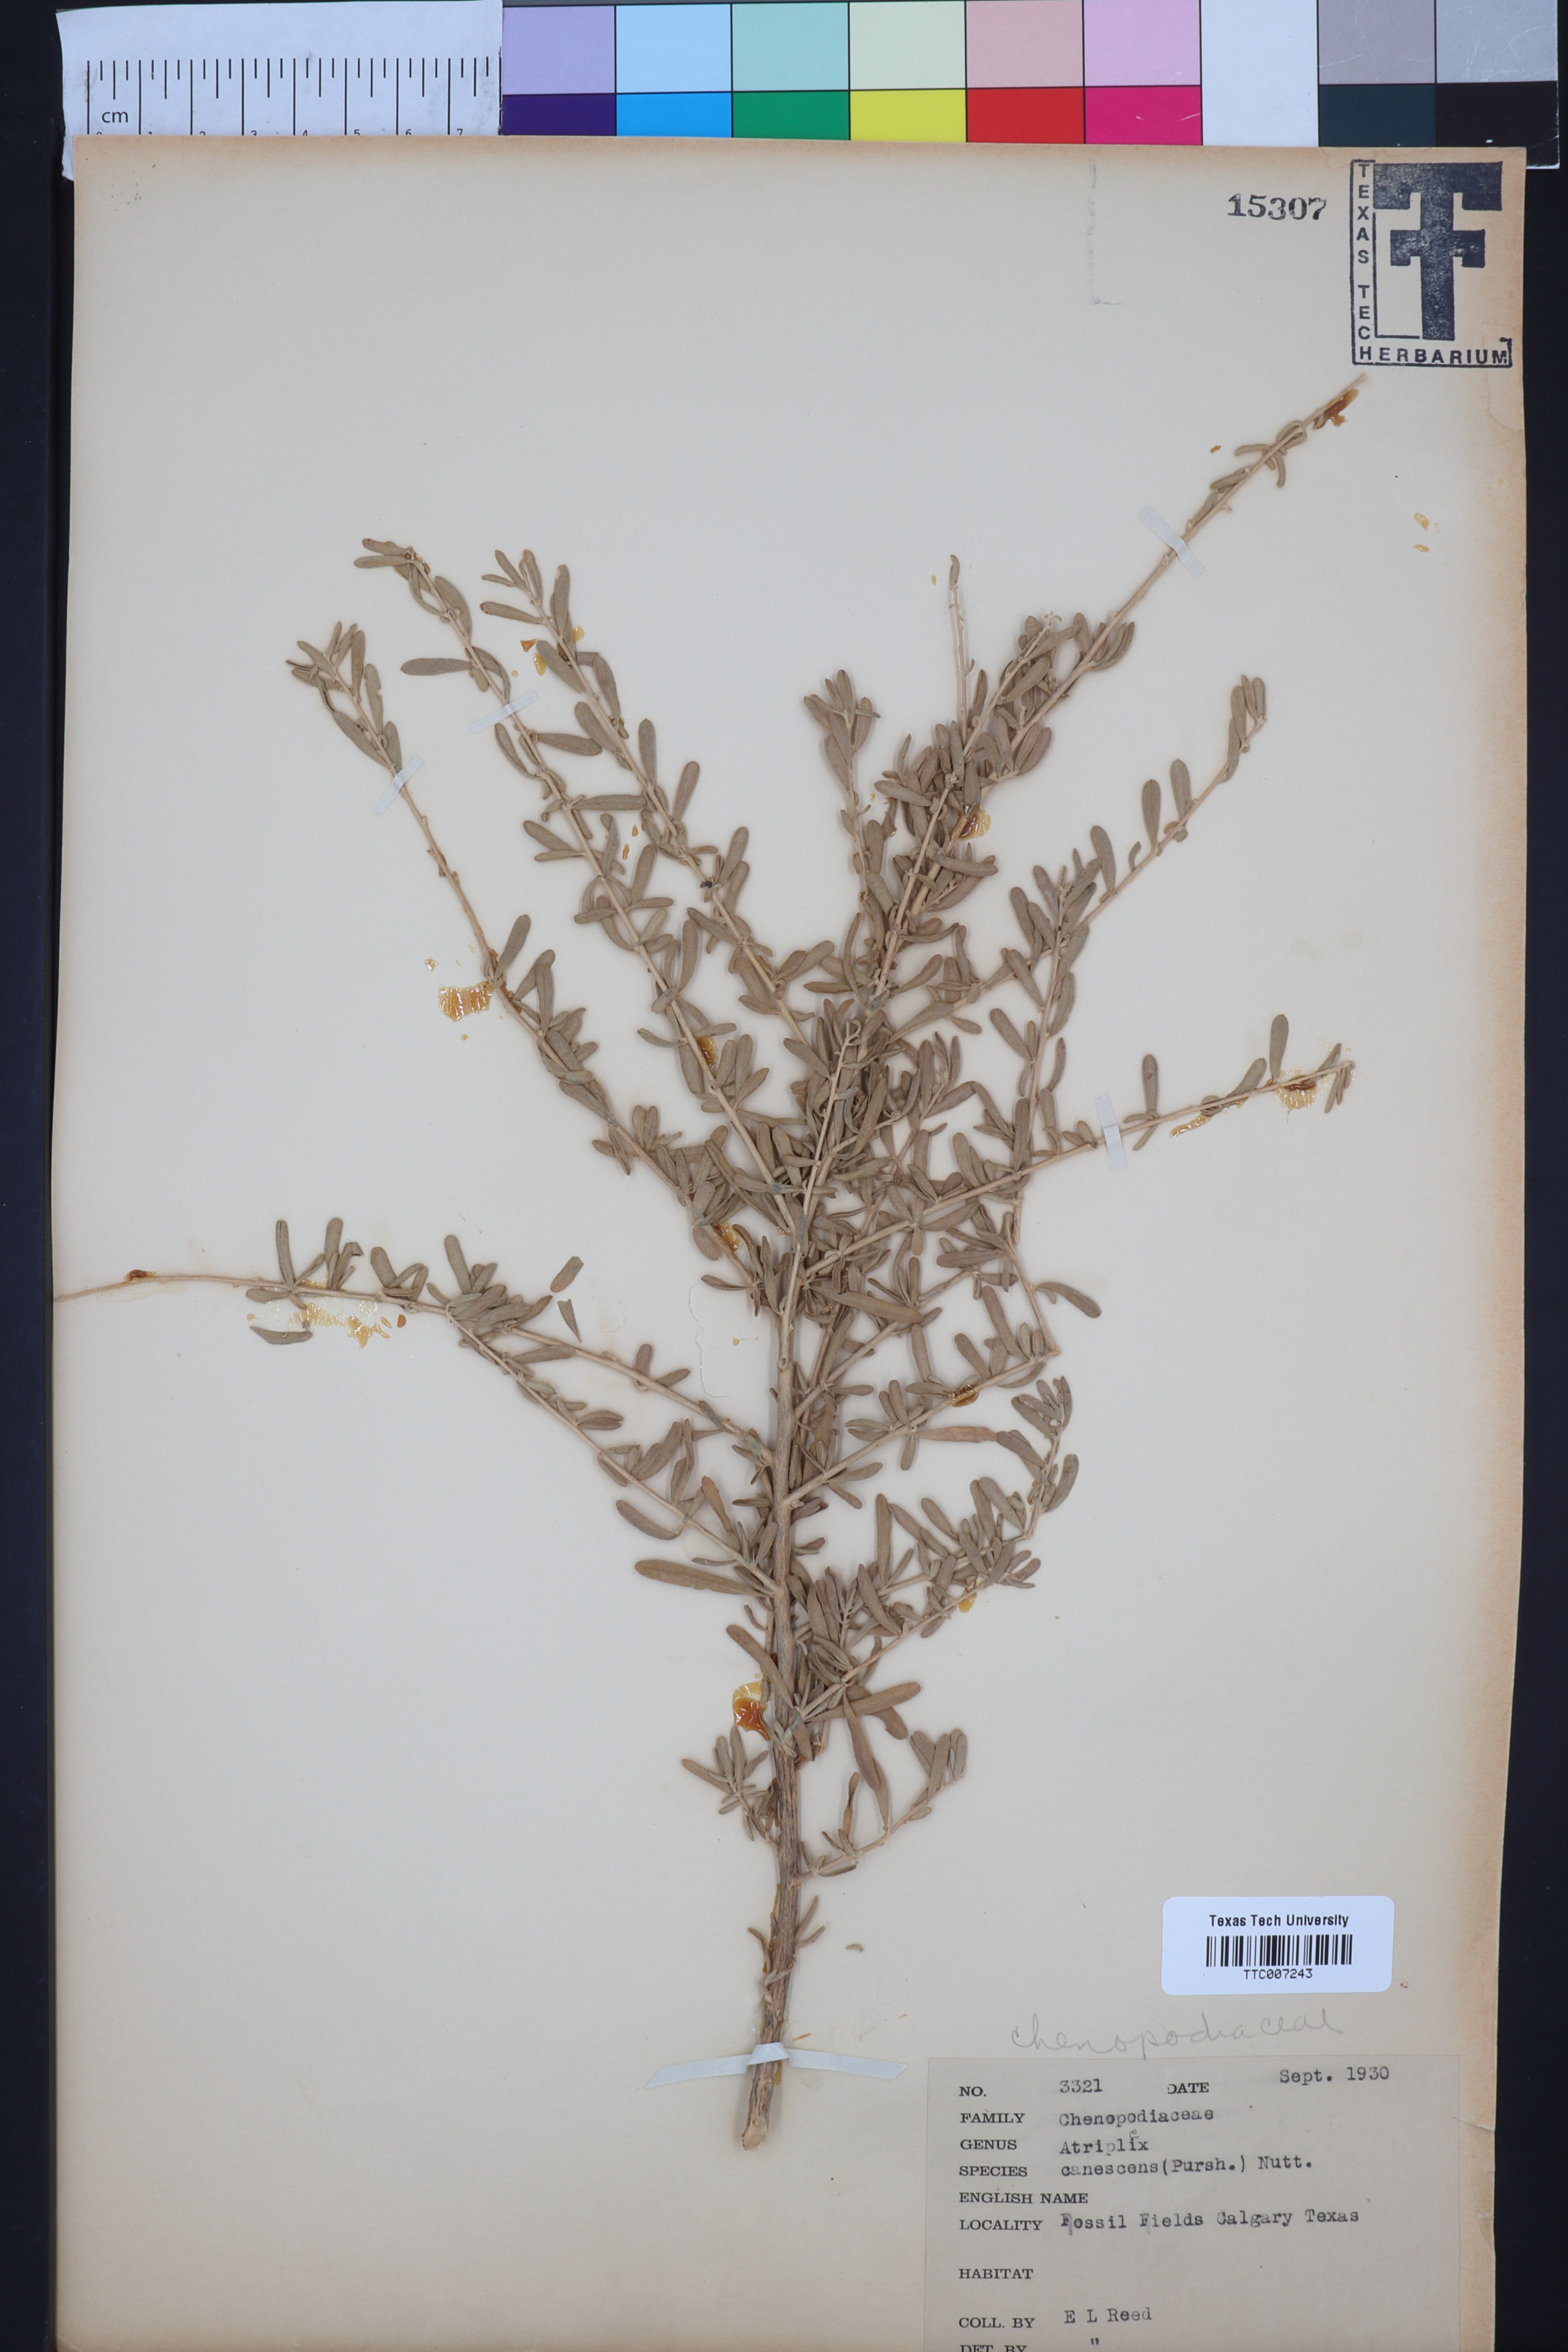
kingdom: Plantae
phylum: Tracheophyta
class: Magnoliopsida
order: Caryophyllales
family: Amaranthaceae
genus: Atriplex
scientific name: Atriplex canescens
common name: Four-wing saltbush
